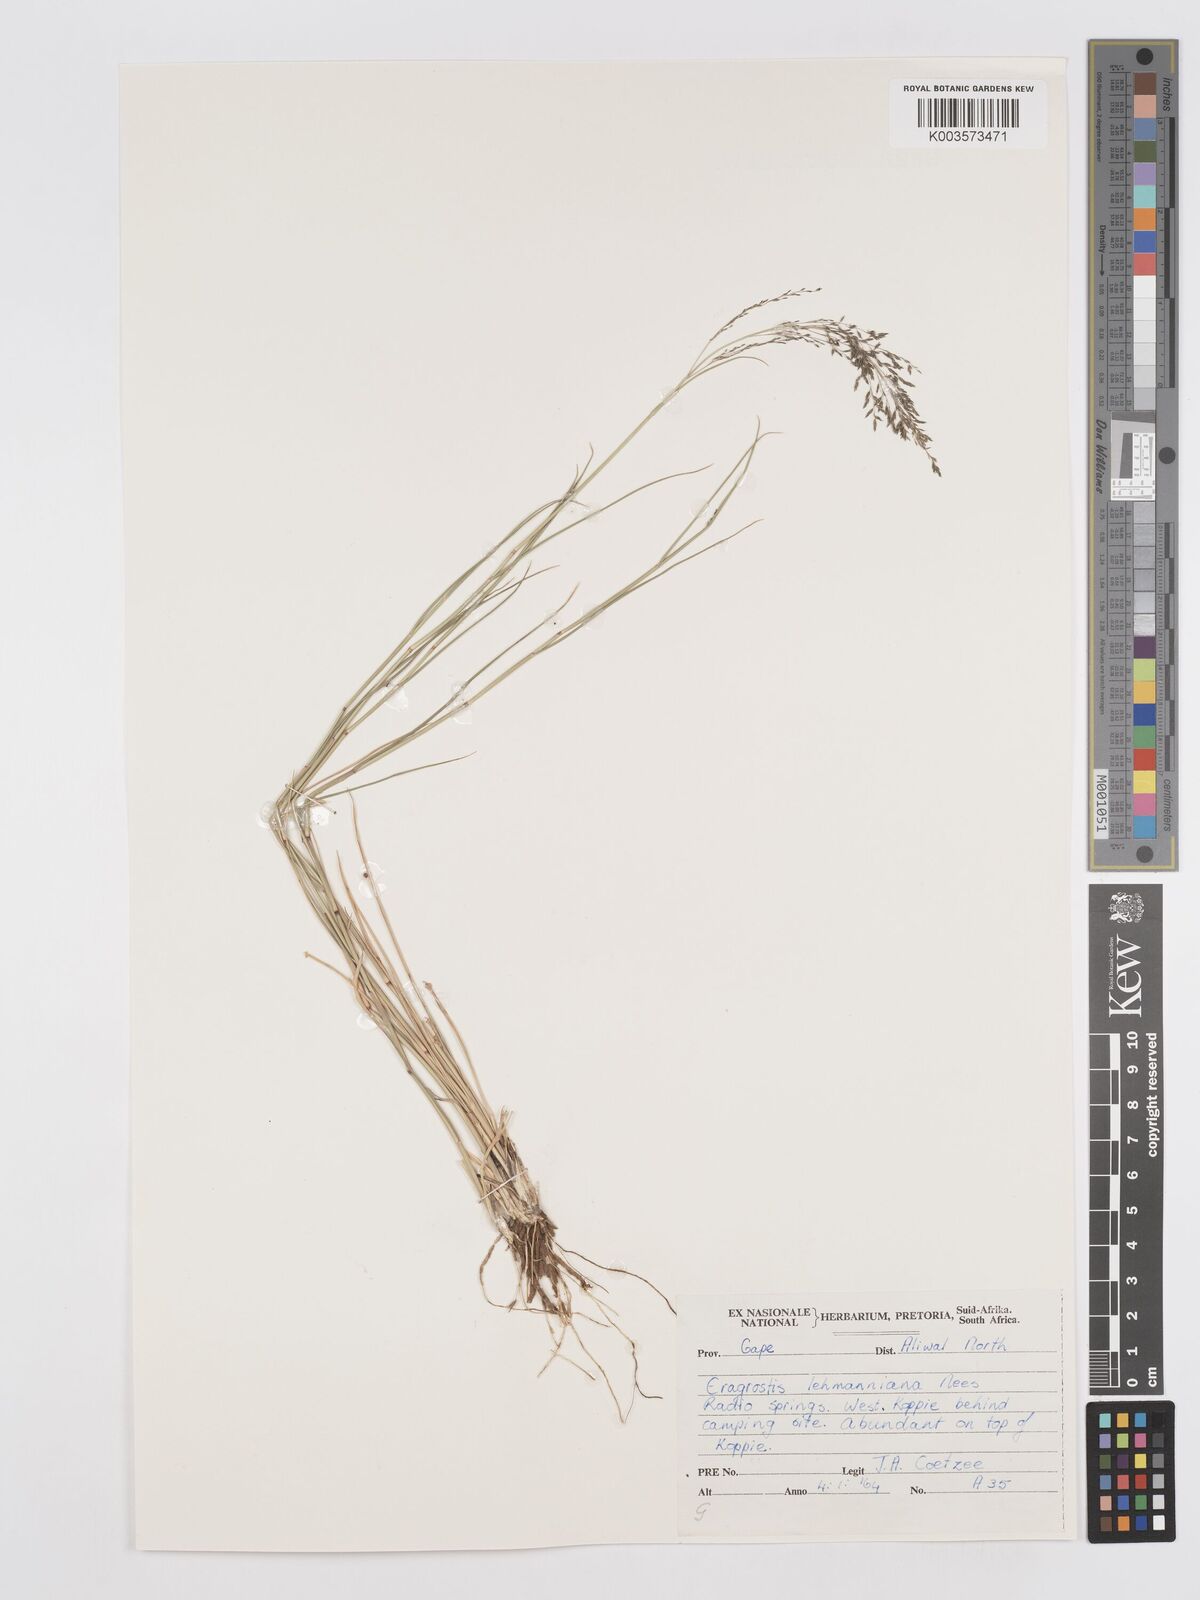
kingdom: Plantae
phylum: Tracheophyta
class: Liliopsida
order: Poales
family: Poaceae
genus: Eragrostis
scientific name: Eragrostis lehmanniana
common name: Lehmann lovegrass
